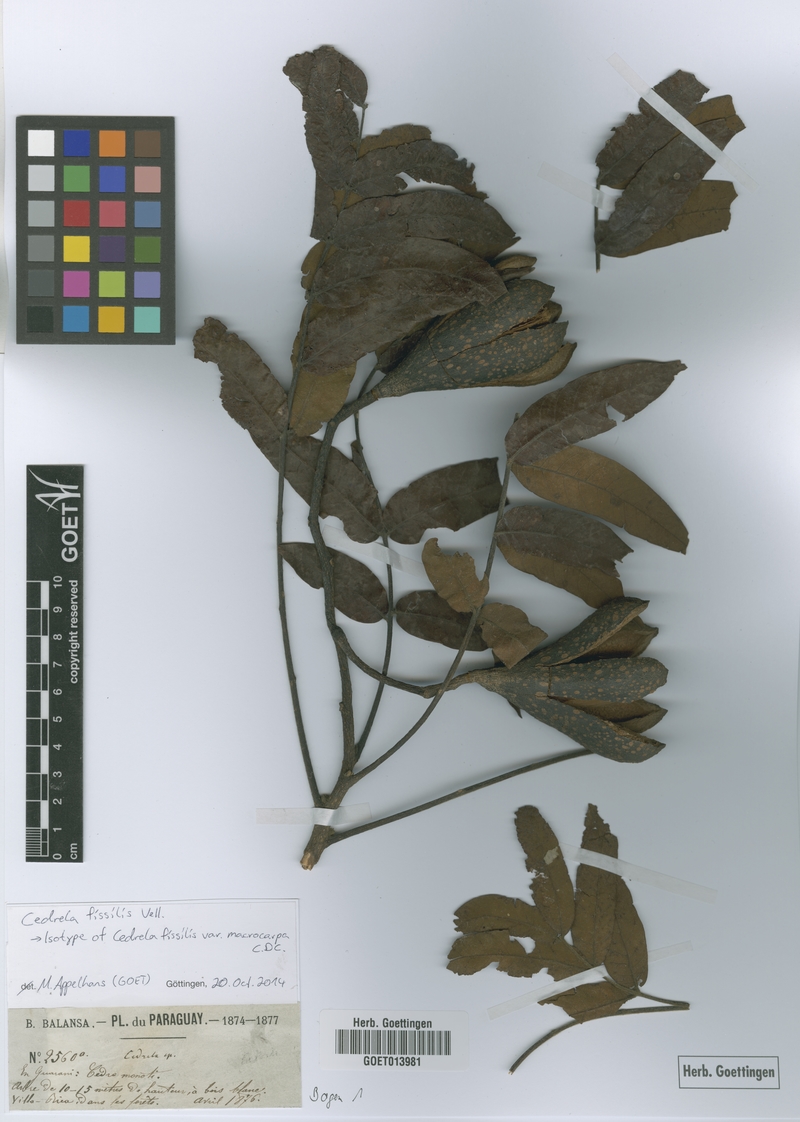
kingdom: Plantae
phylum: Tracheophyta
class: Magnoliopsida
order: Sapindales
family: Meliaceae
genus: Cedrela
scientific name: Cedrela fissilis
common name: Argentine cedar
